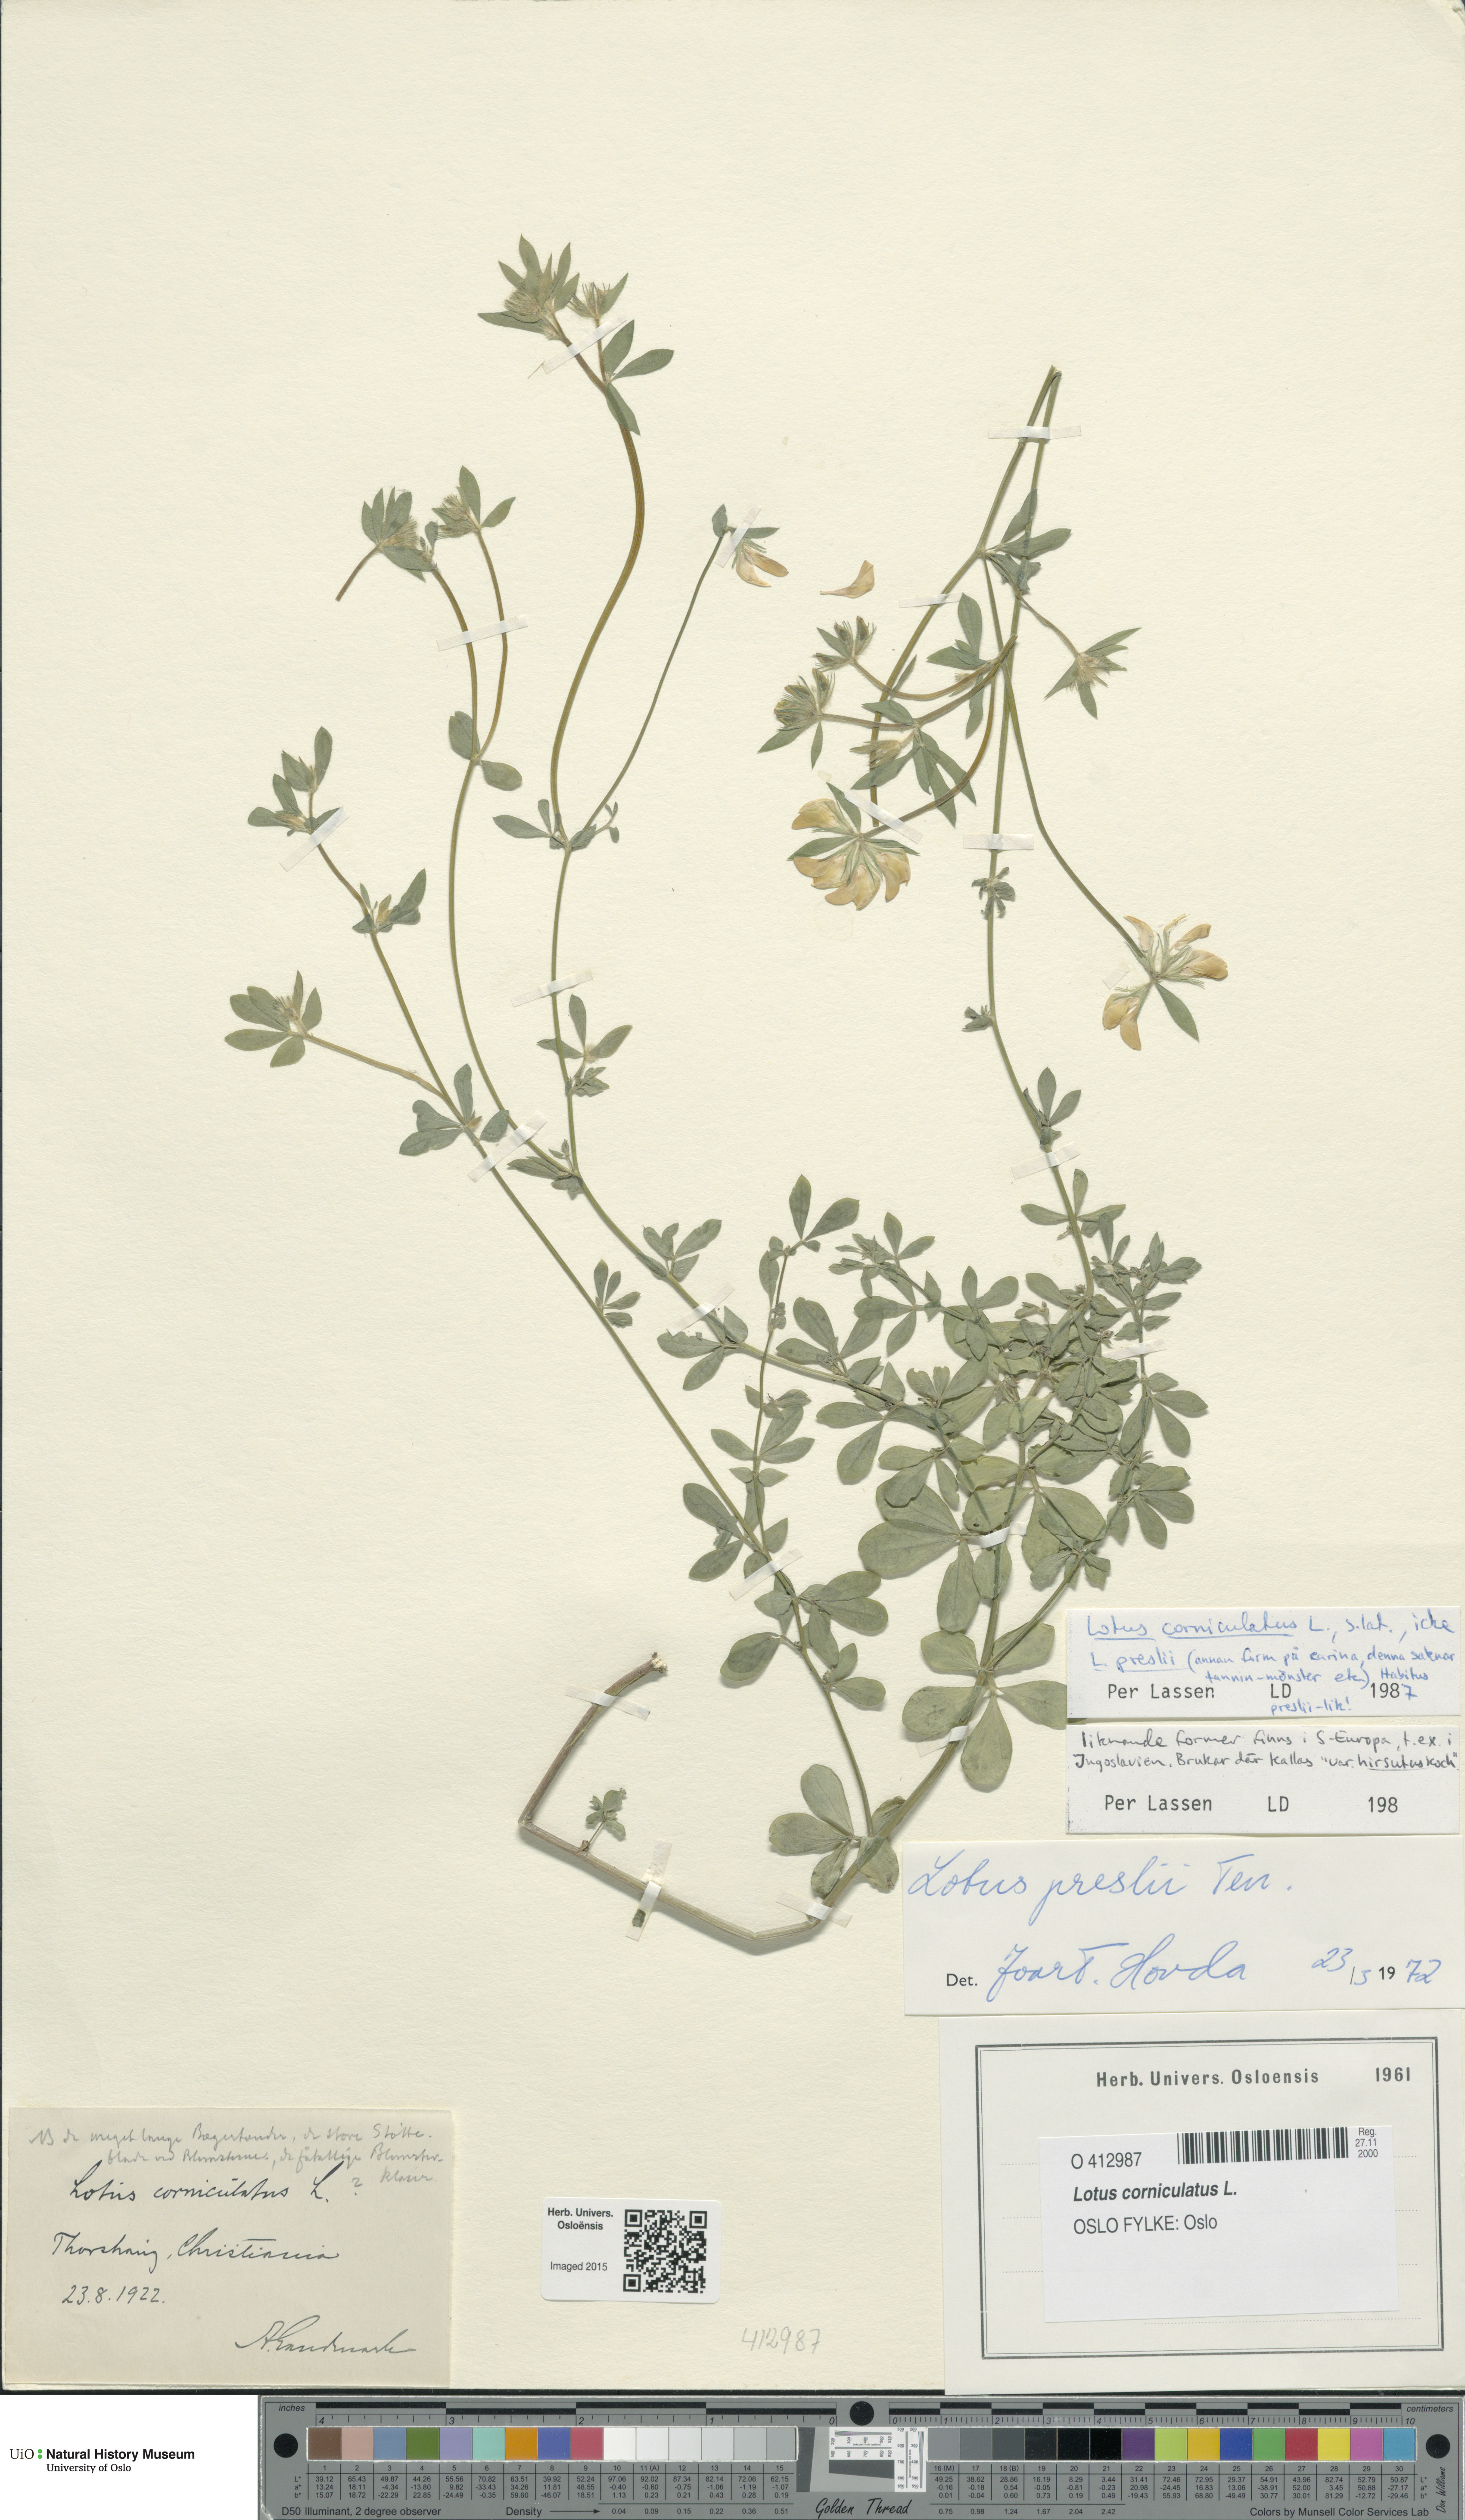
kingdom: Plantae
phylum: Tracheophyta
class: Magnoliopsida
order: Fabales
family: Fabaceae
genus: Lotus
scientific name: Lotus corniculatus
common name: Common bird's-foot-trefoil
